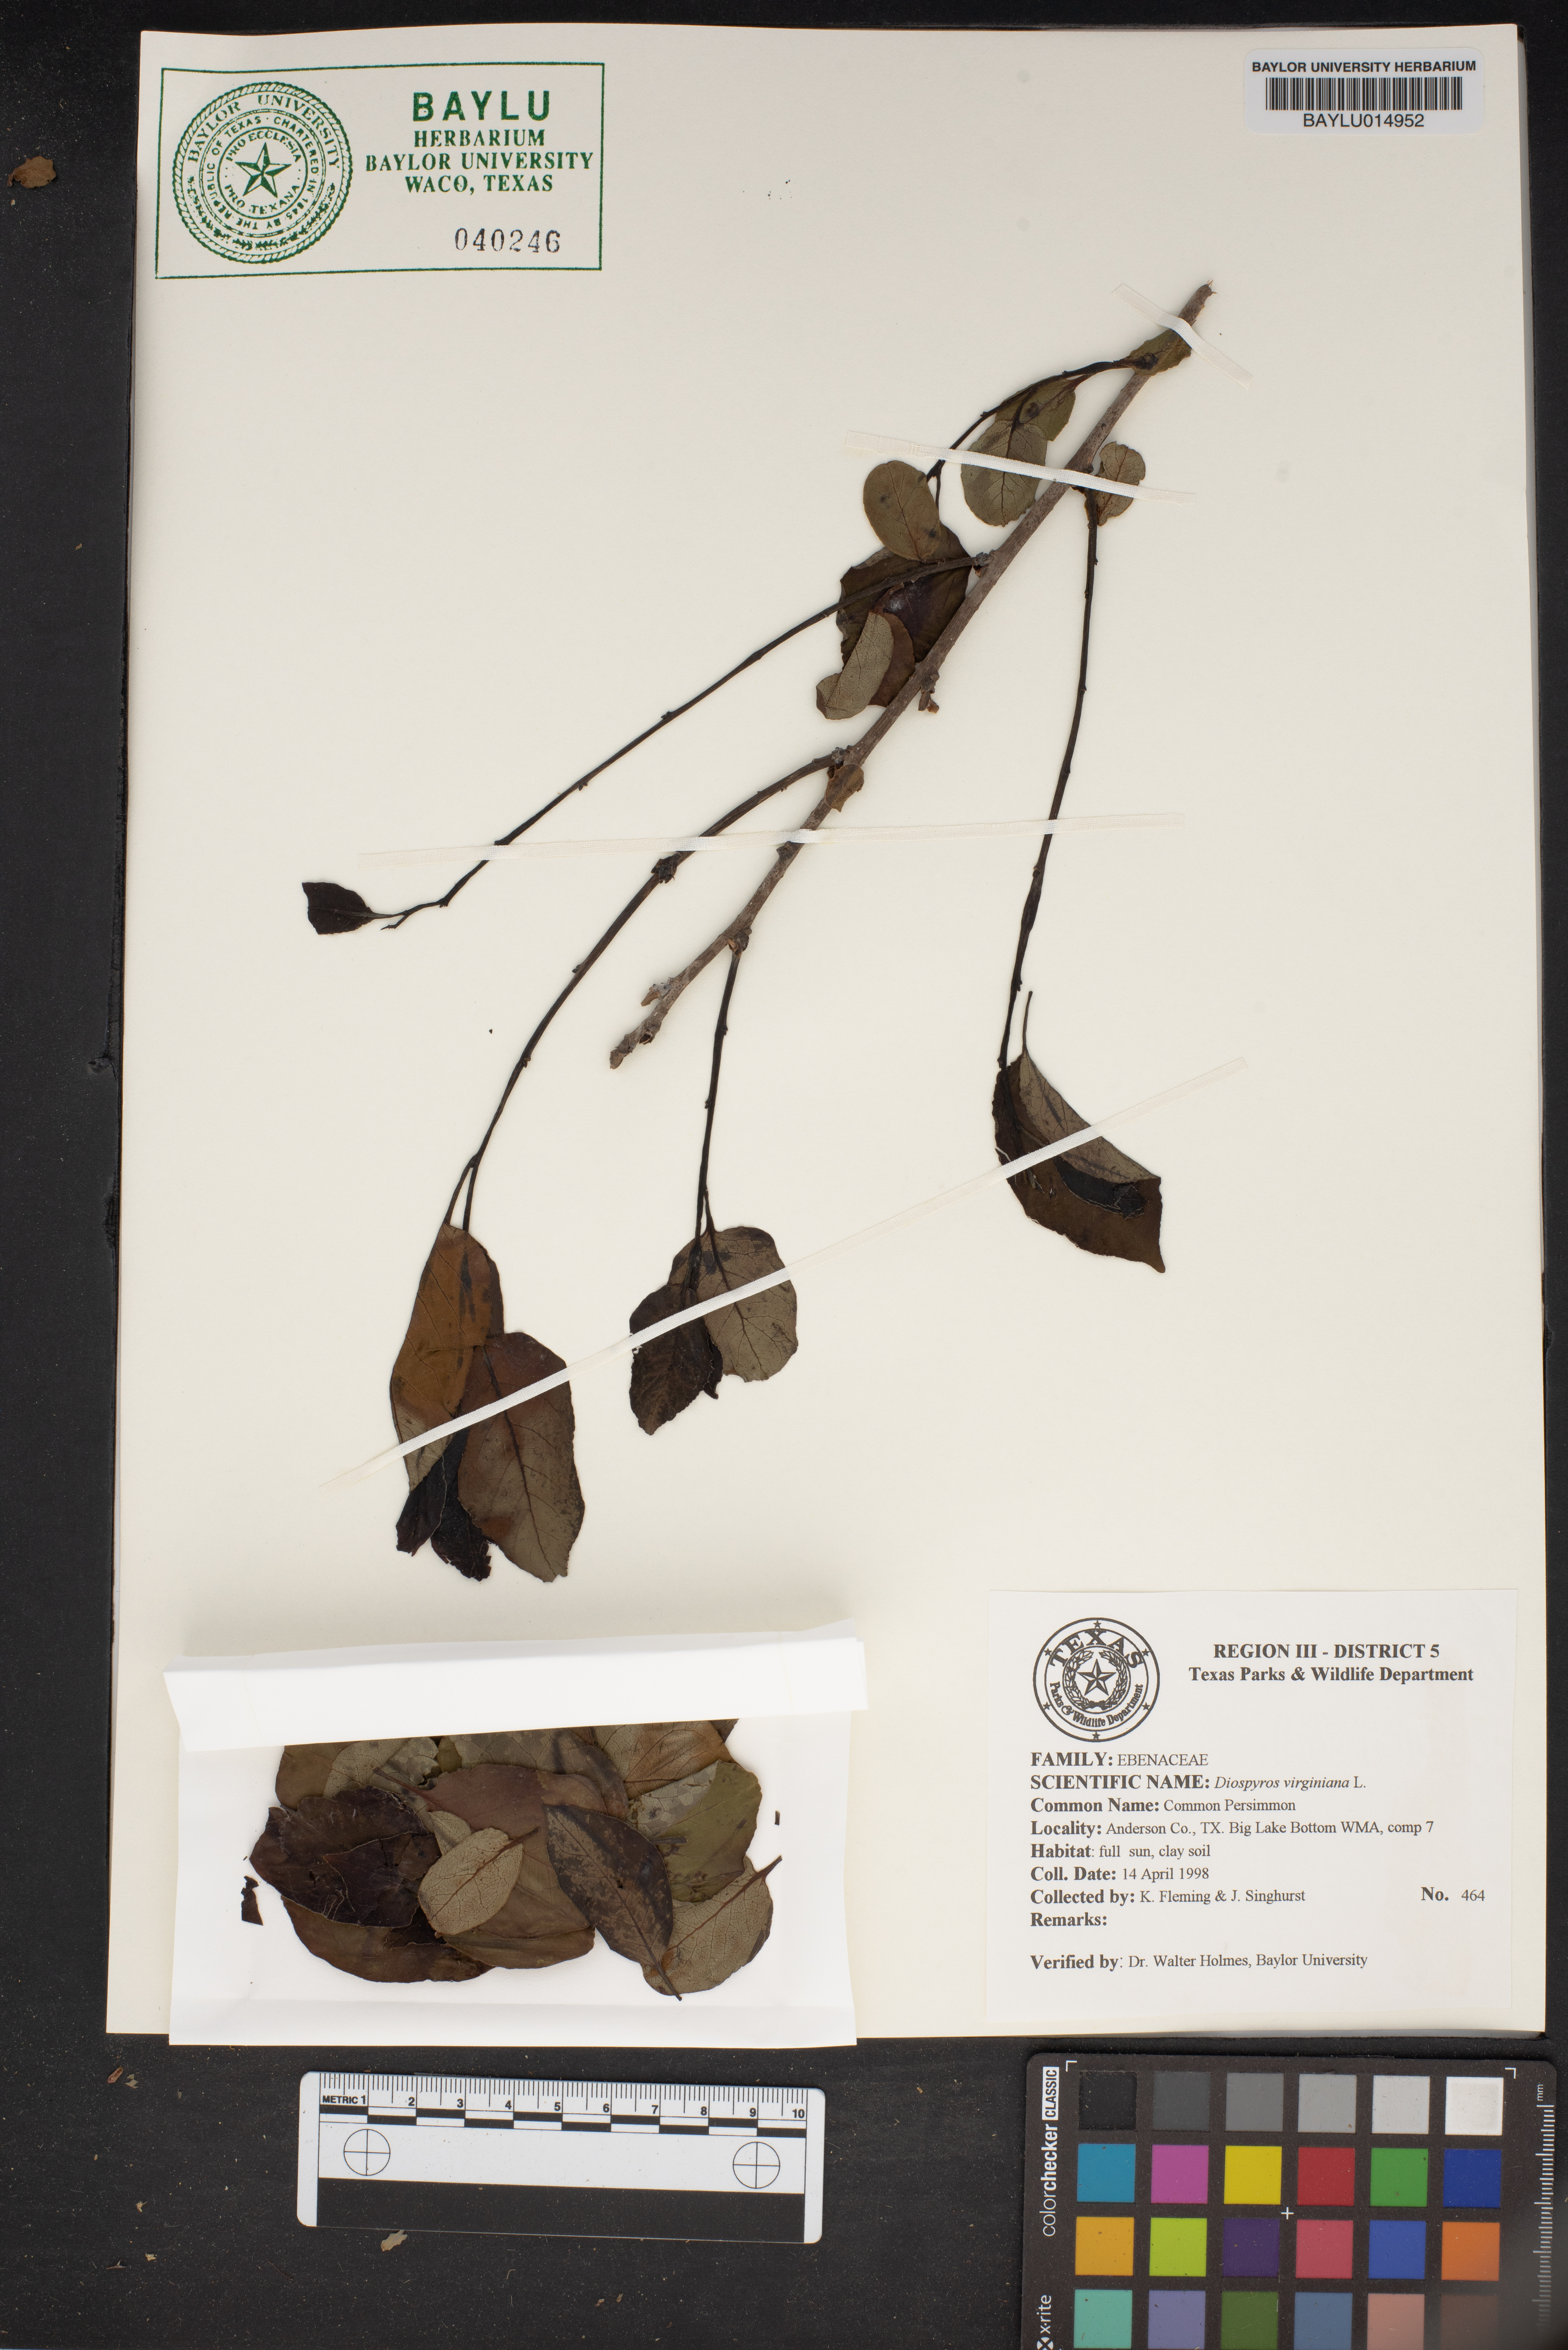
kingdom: Plantae
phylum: Tracheophyta
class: Magnoliopsida
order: Ericales
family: Ebenaceae
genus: Diospyros
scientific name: Diospyros virginiana
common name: Persimmon
